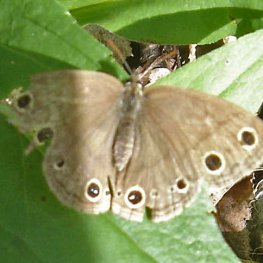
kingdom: Animalia
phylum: Arthropoda
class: Insecta
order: Lepidoptera
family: Nymphalidae
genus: Euptychia
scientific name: Euptychia cymela
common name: Little Wood Satyr
